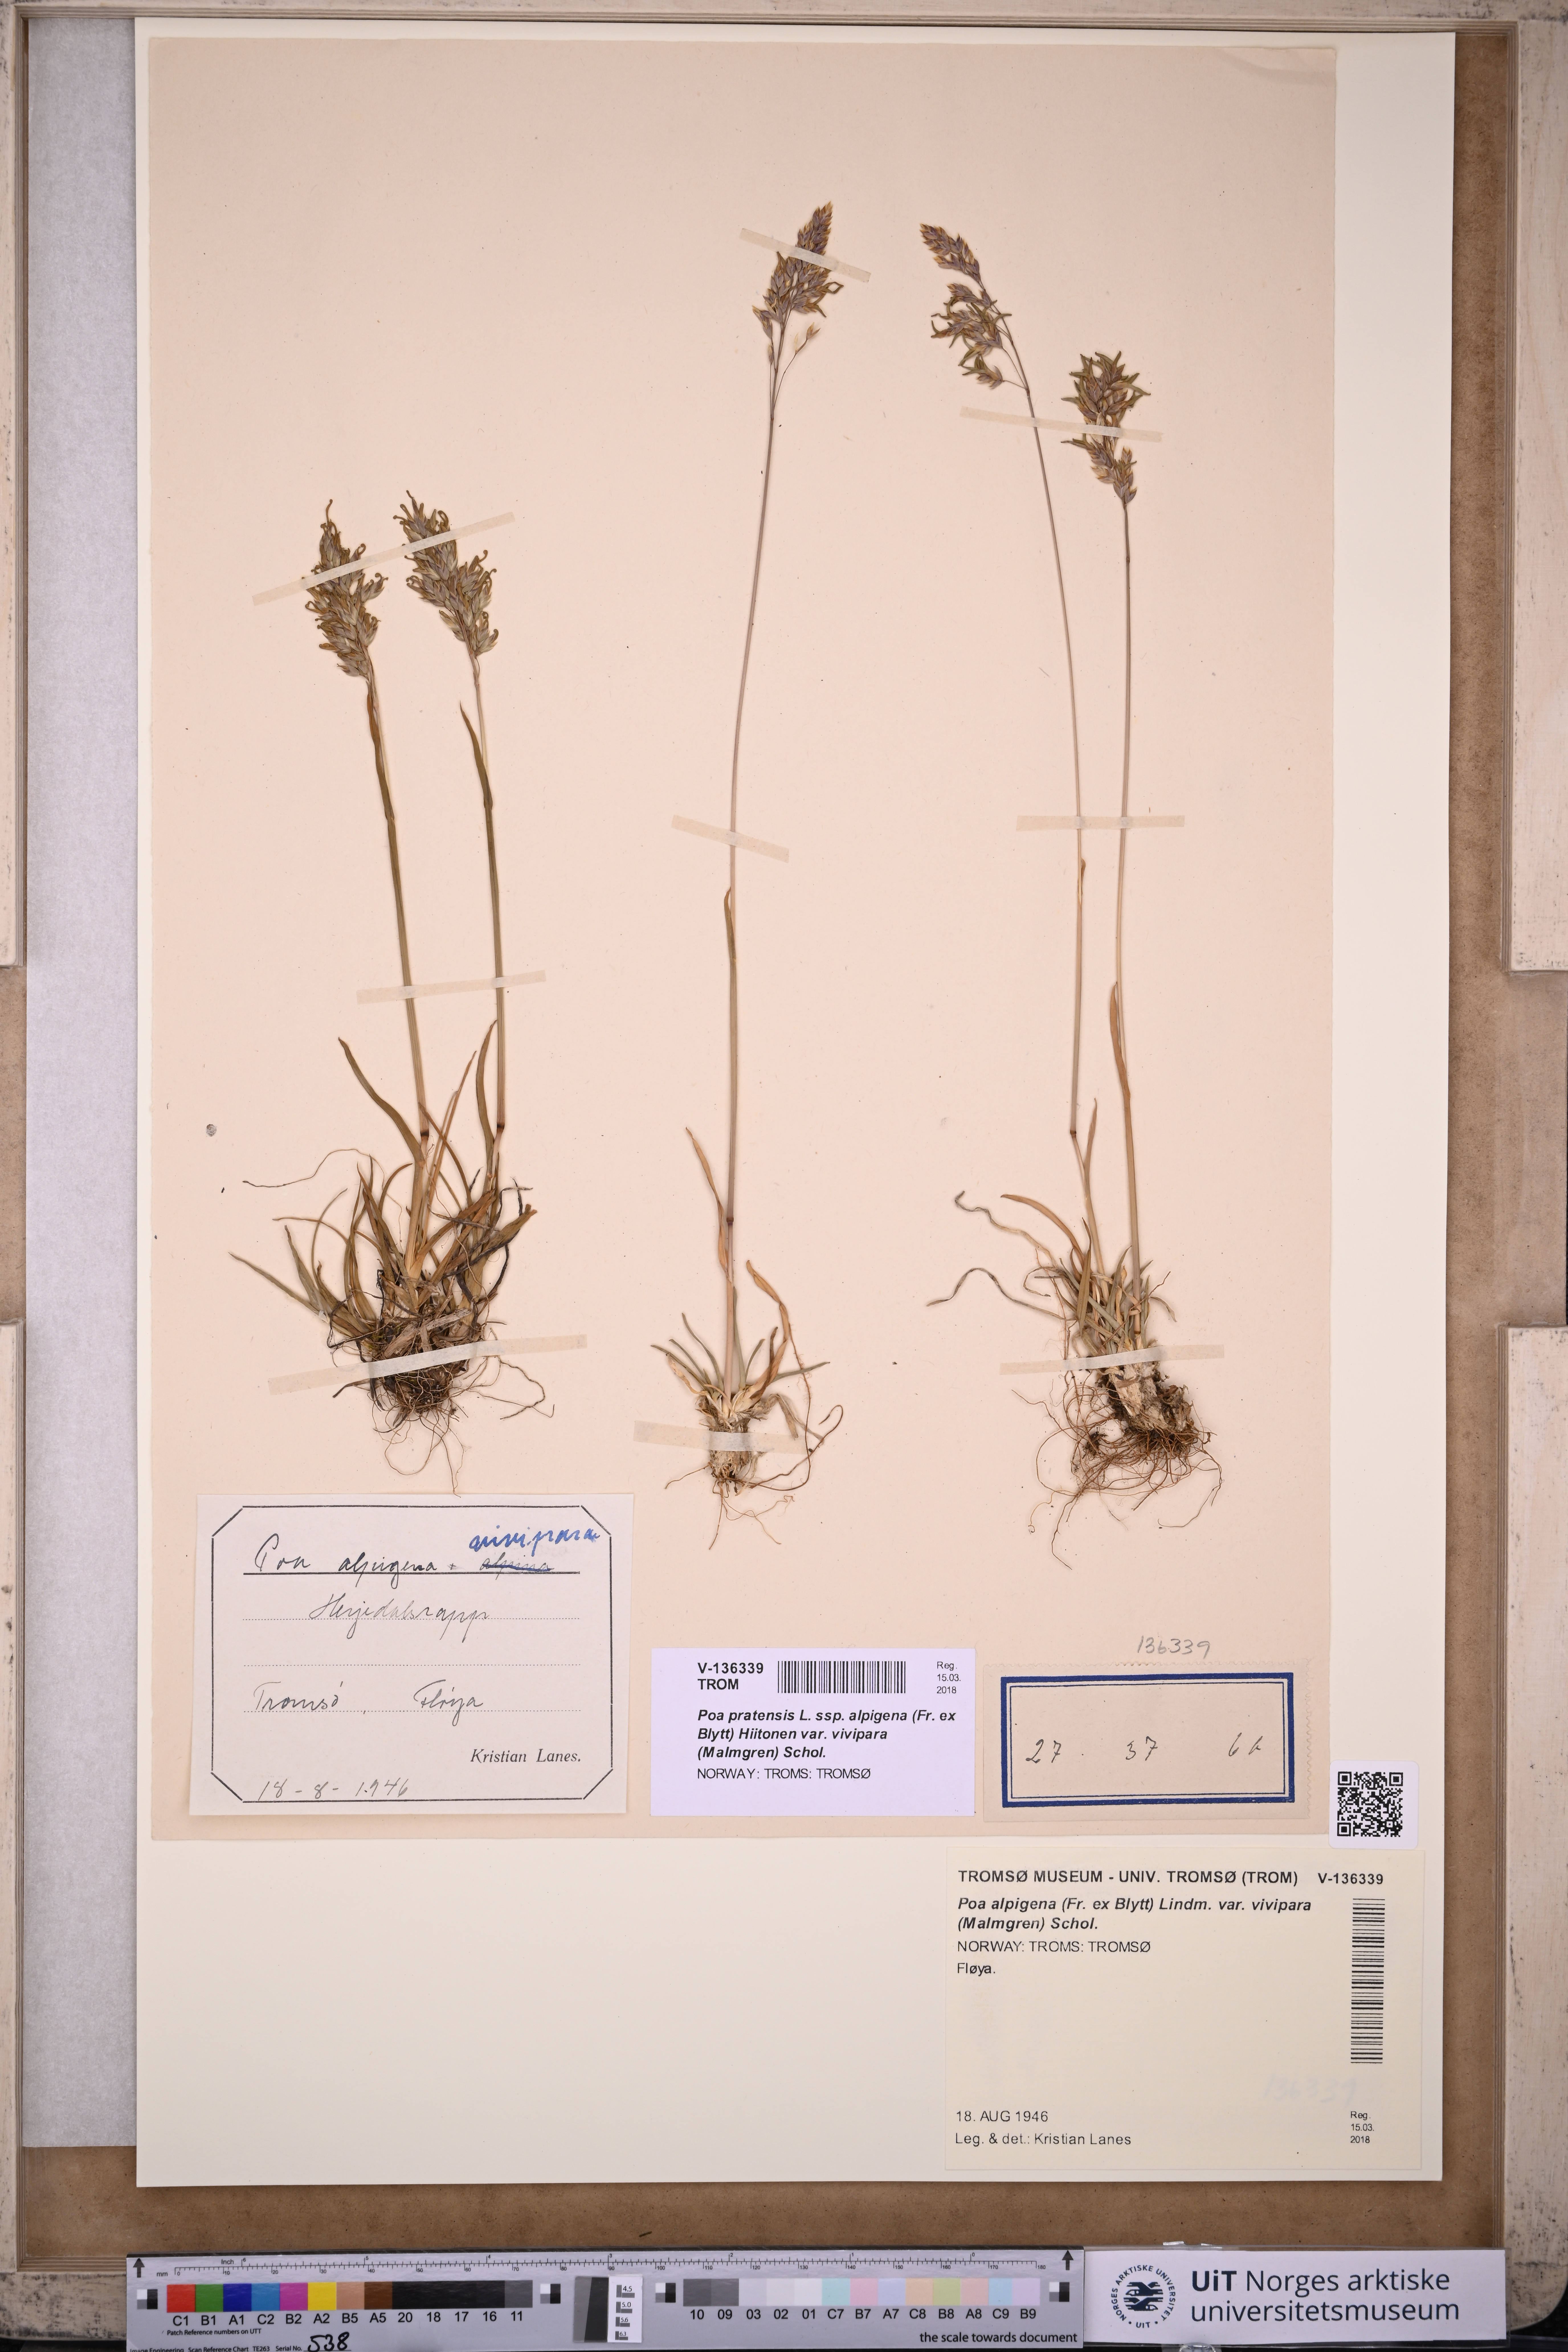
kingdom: Plantae
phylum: Tracheophyta
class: Liliopsida
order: Poales
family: Poaceae
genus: Poa
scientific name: Poa arctica
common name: Arctic bluegrass
